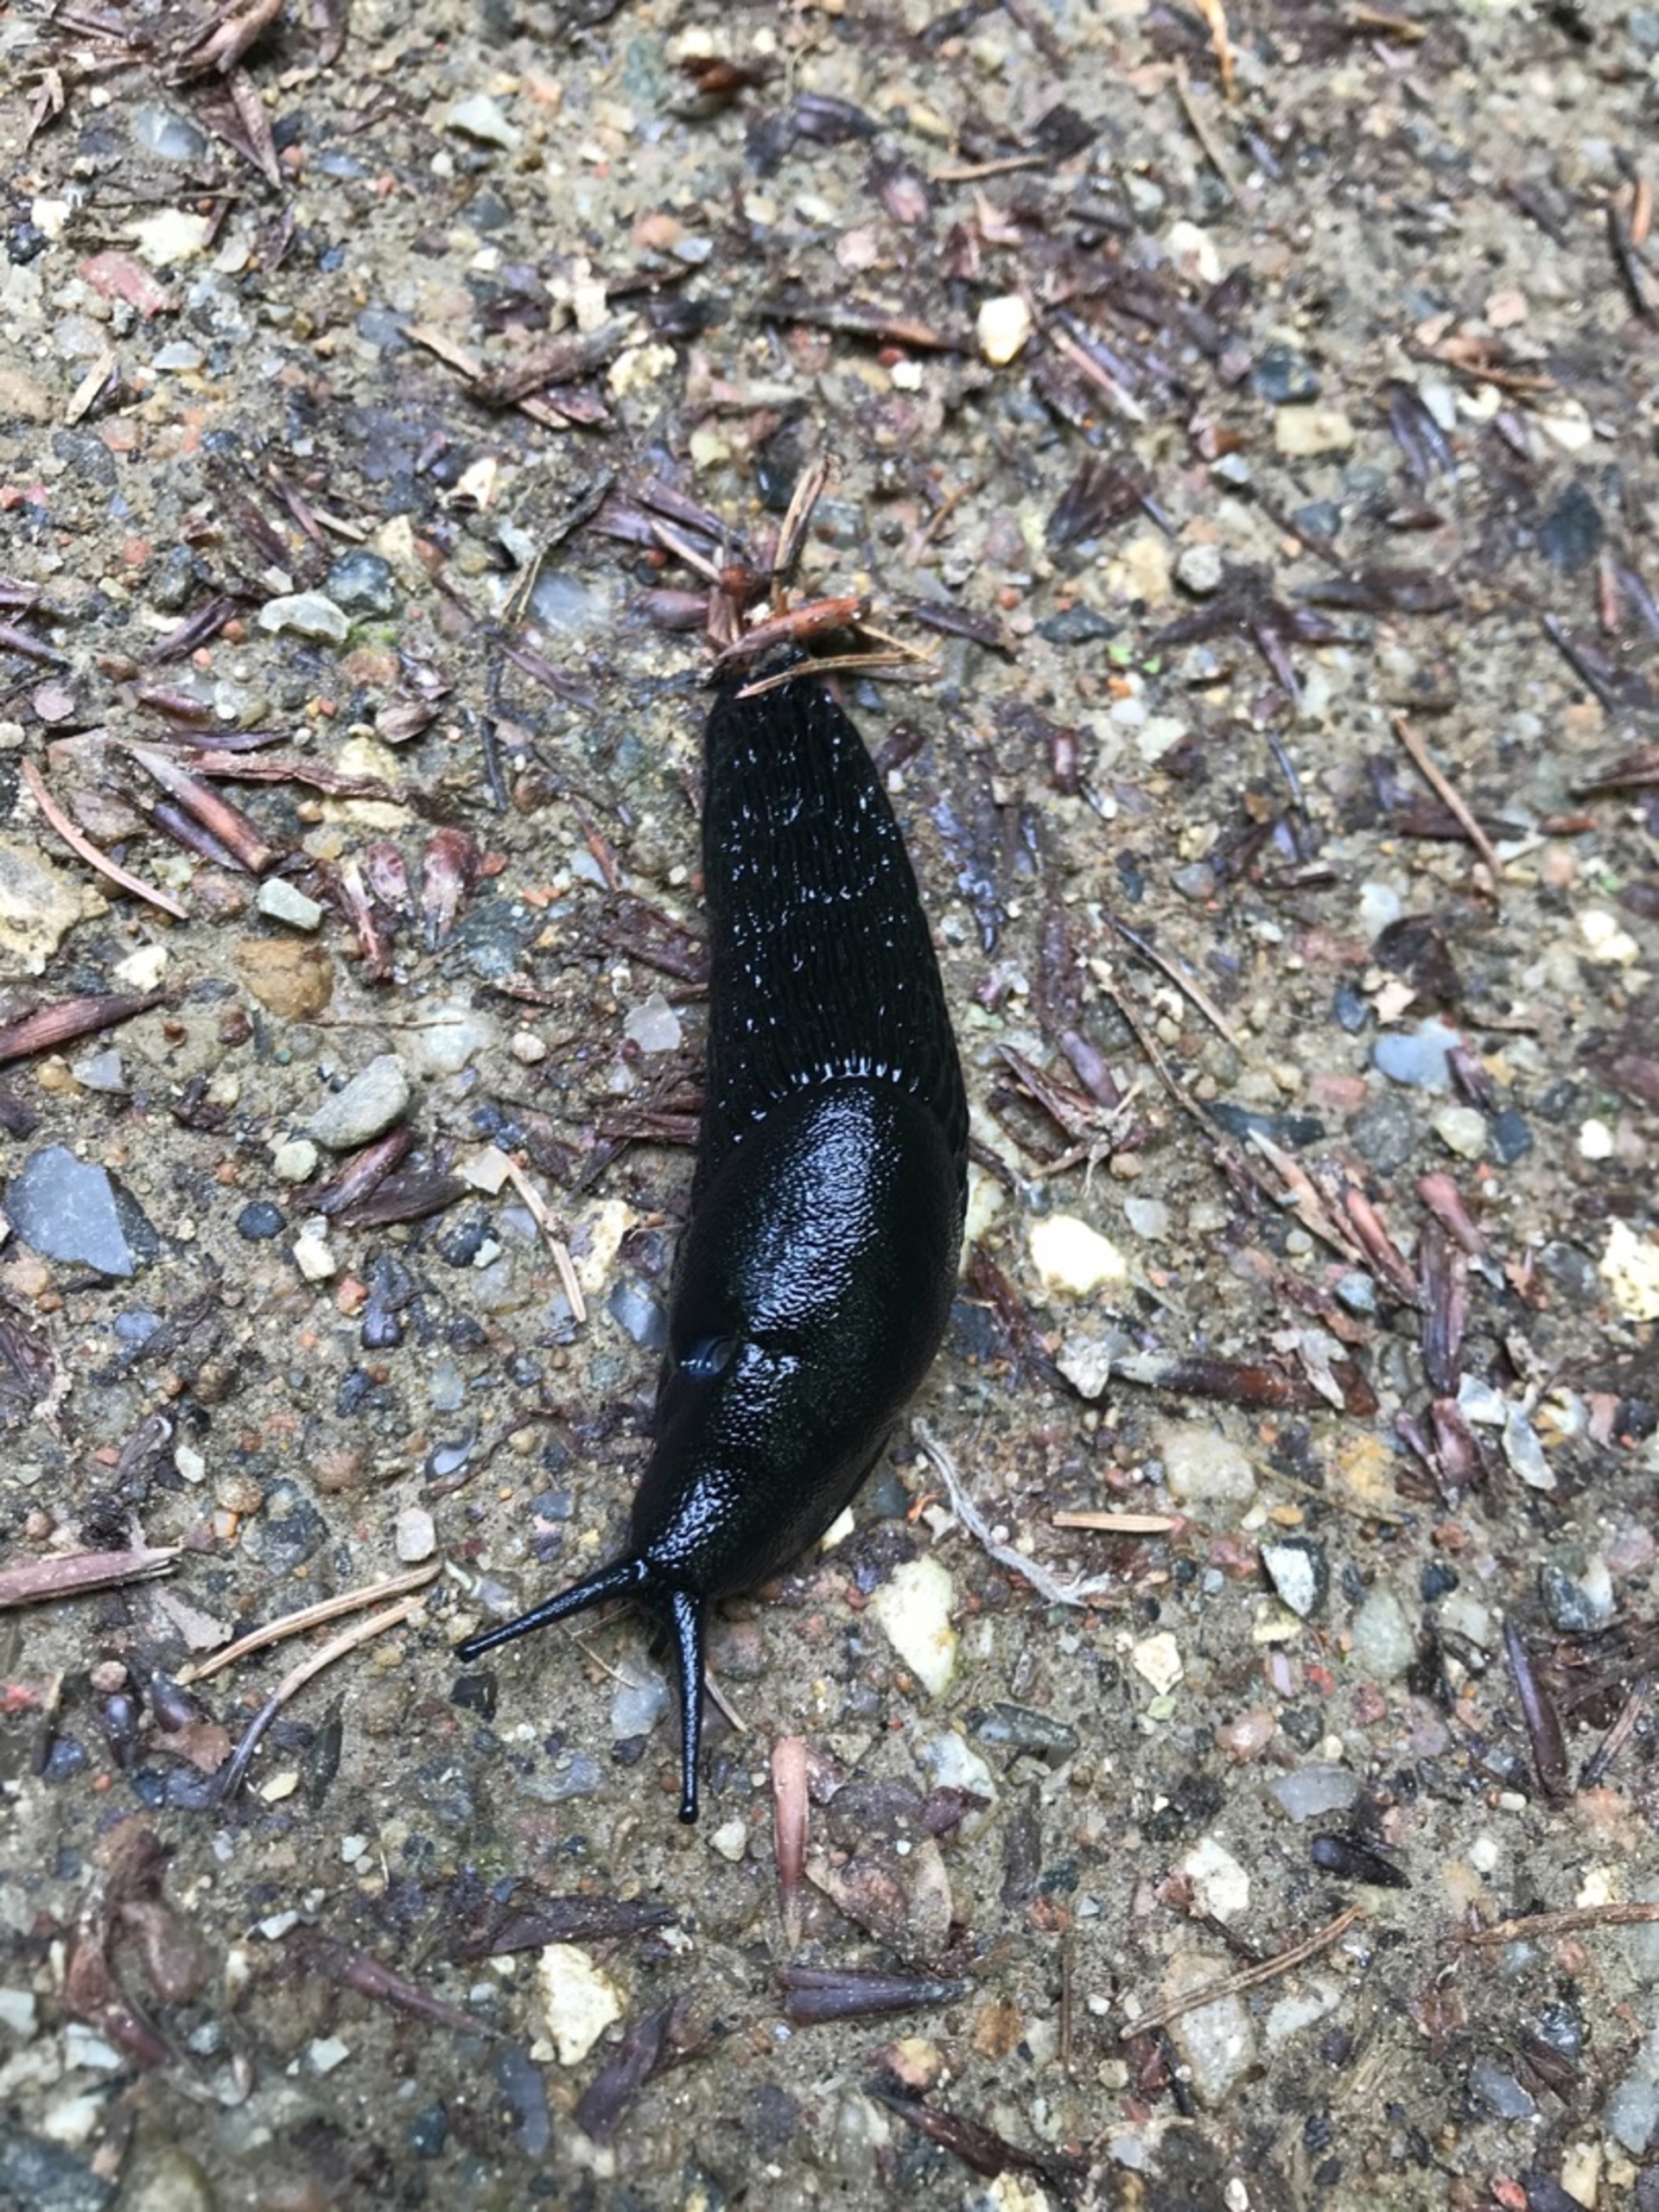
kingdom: Animalia
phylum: Mollusca
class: Gastropoda
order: Stylommatophora
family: Arionidae
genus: Arion
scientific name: Arion ater
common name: Sort skovsnegl
